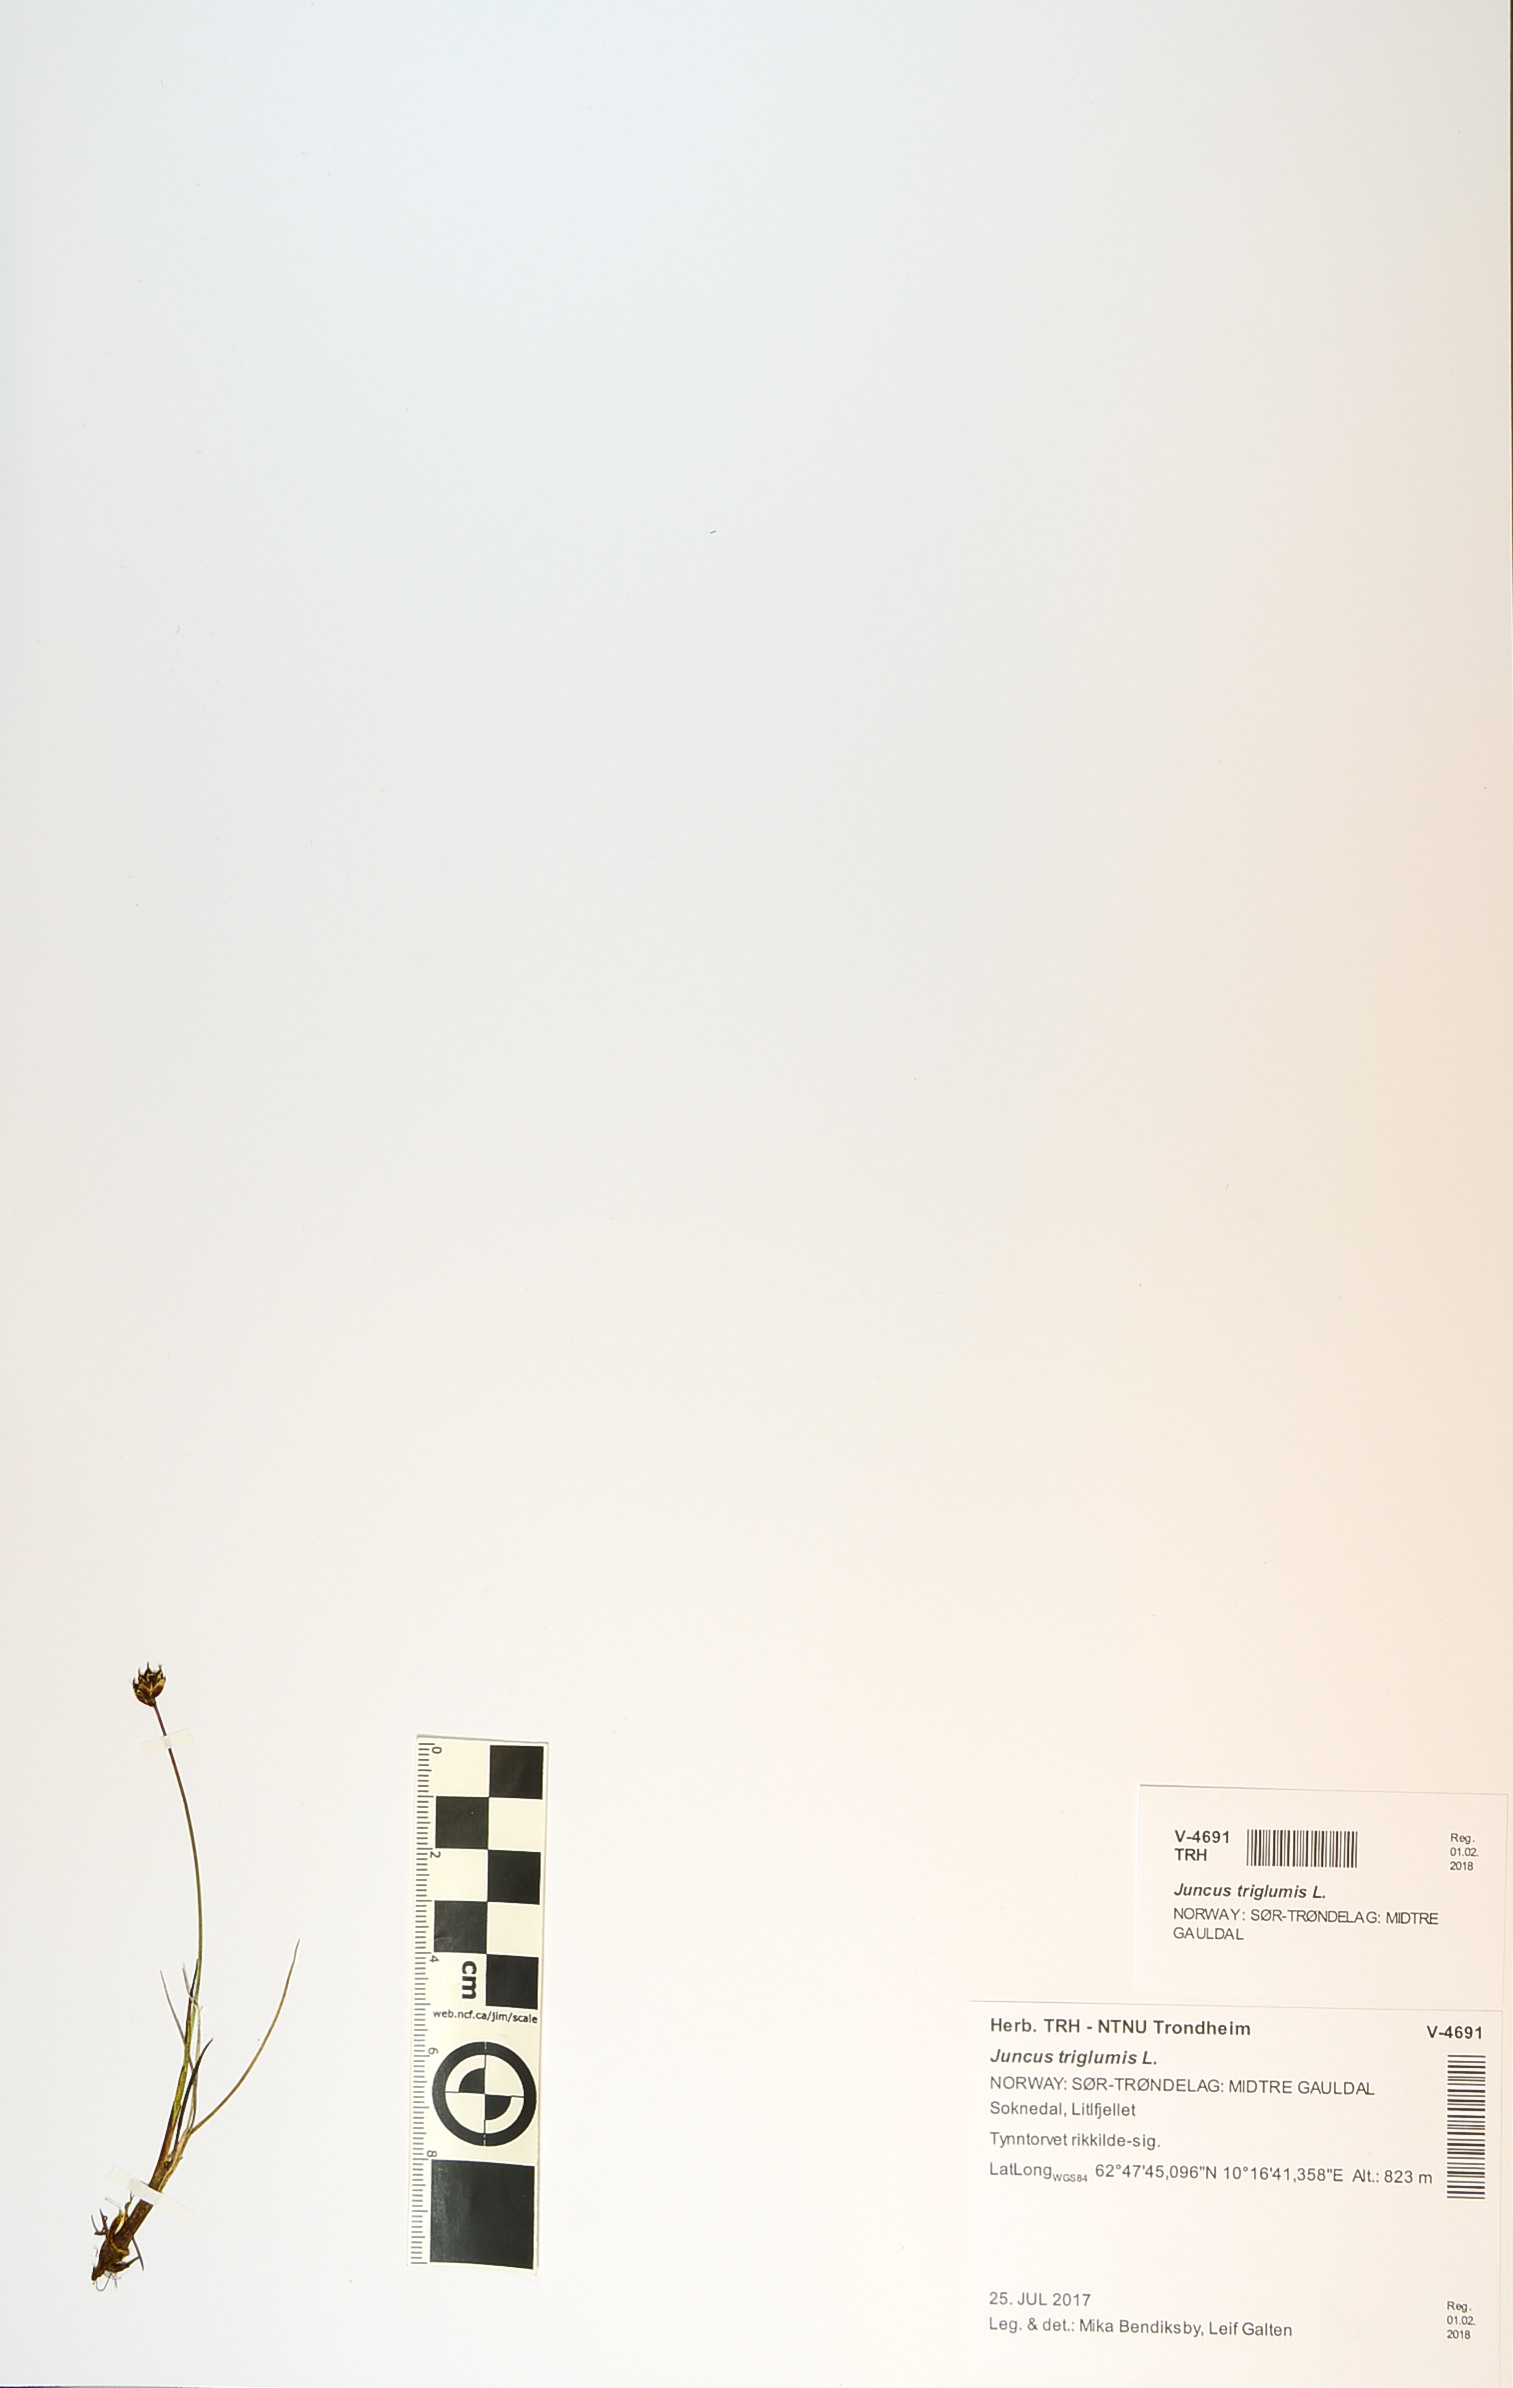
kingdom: Plantae
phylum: Tracheophyta
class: Liliopsida
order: Poales
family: Juncaceae
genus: Juncus
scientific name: Juncus triglumis
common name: Three-flowered rush
